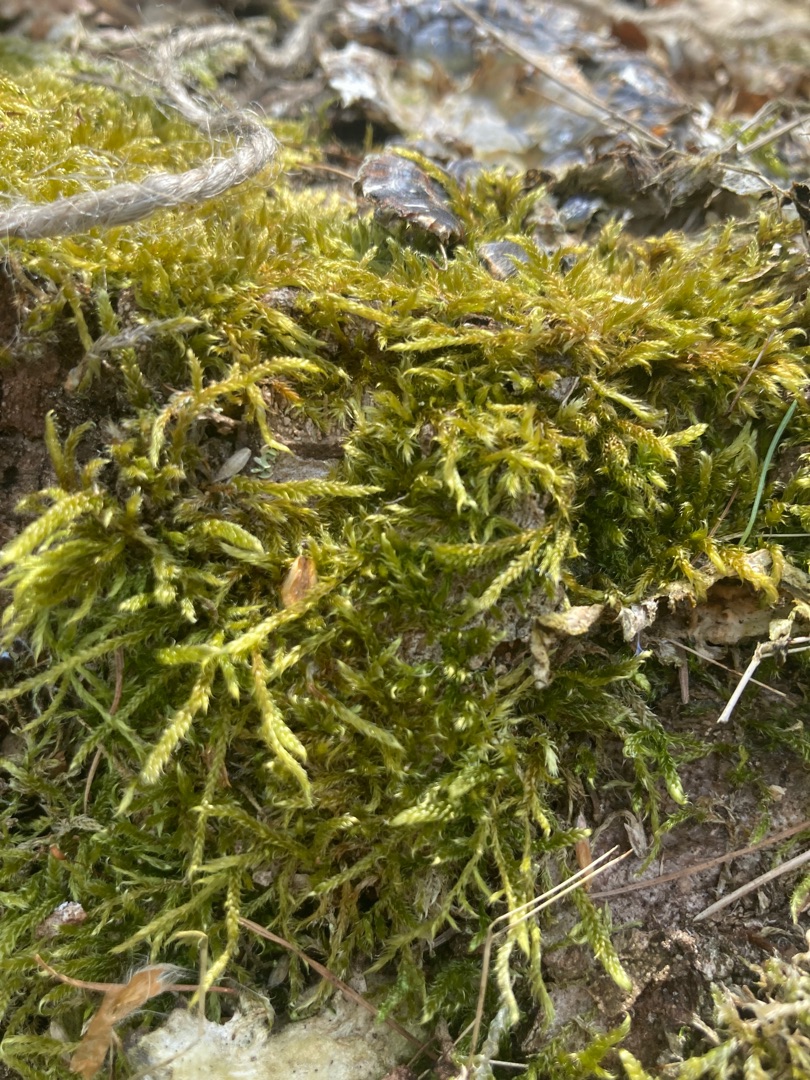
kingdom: Plantae
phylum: Bryophyta
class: Bryopsida
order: Hypnales
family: Hypnaceae
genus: Hypnum
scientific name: Hypnum cupressiforme
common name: Almindelig cypresmos
